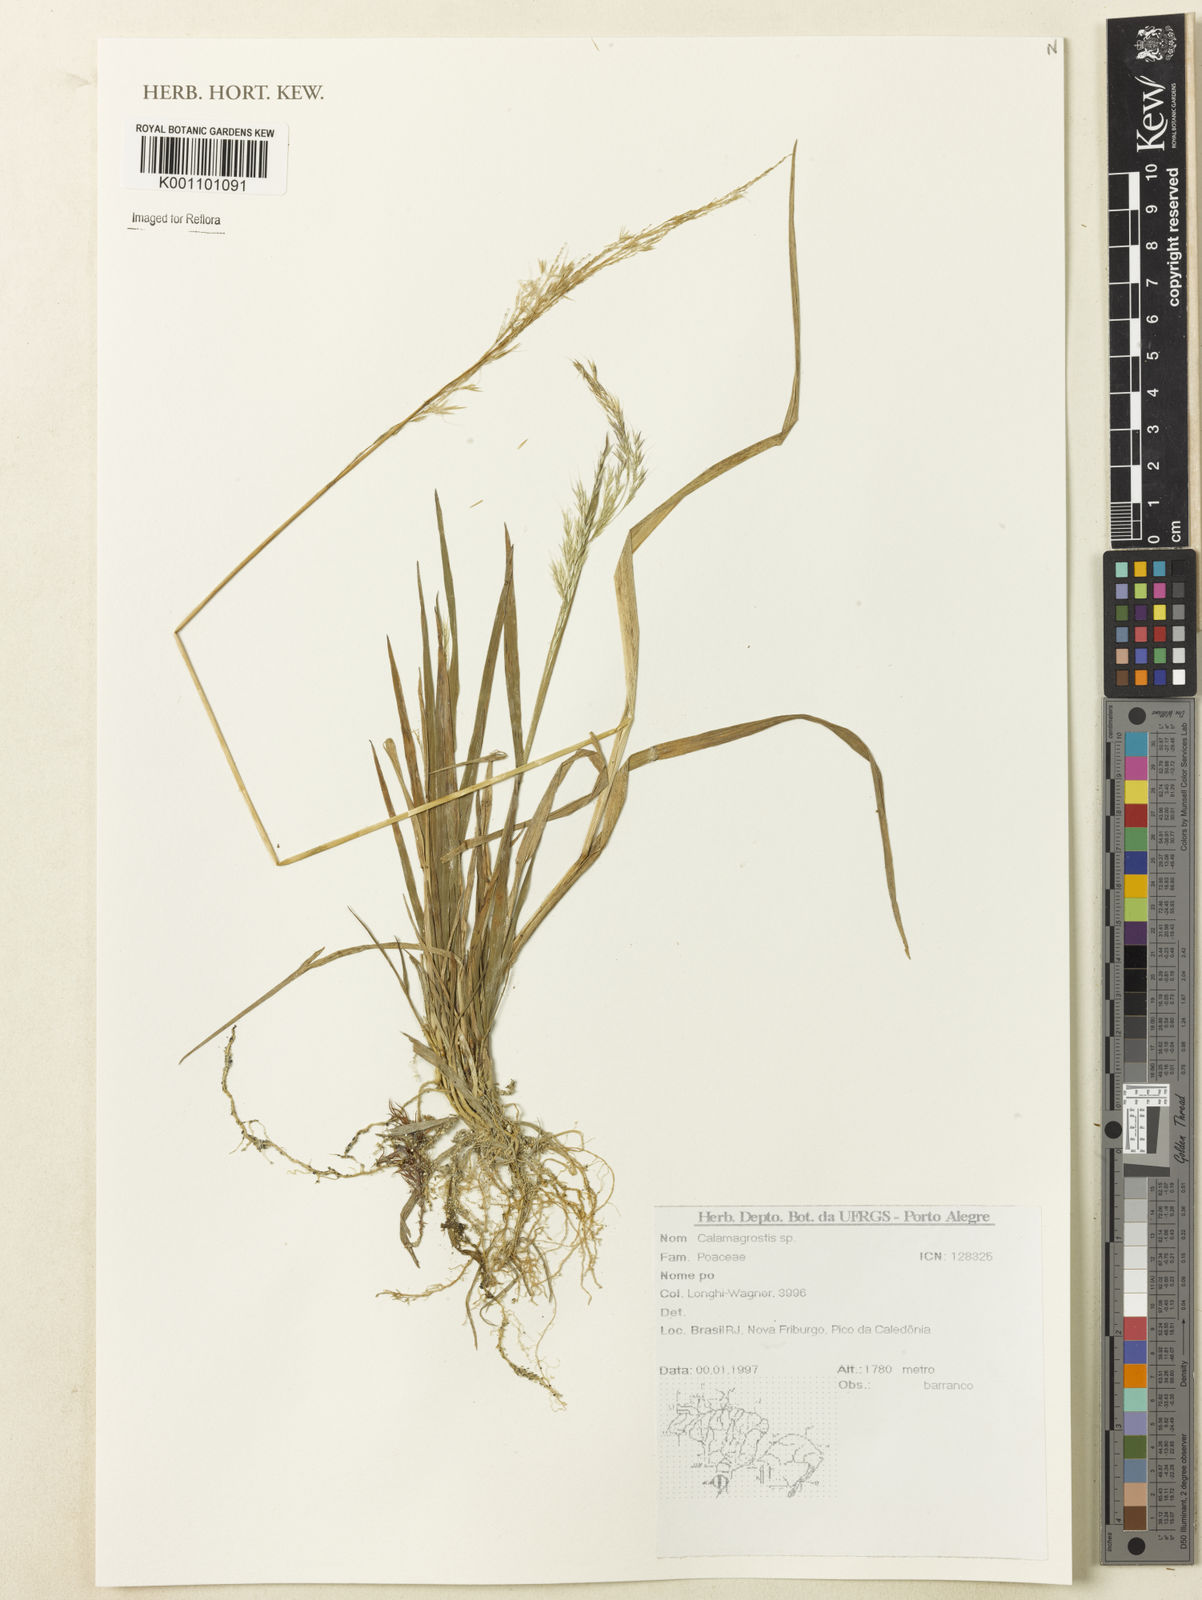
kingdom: Plantae
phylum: Tracheophyta
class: Liliopsida
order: Poales
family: Poaceae
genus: Calamagrostis
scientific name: Calamagrostis
